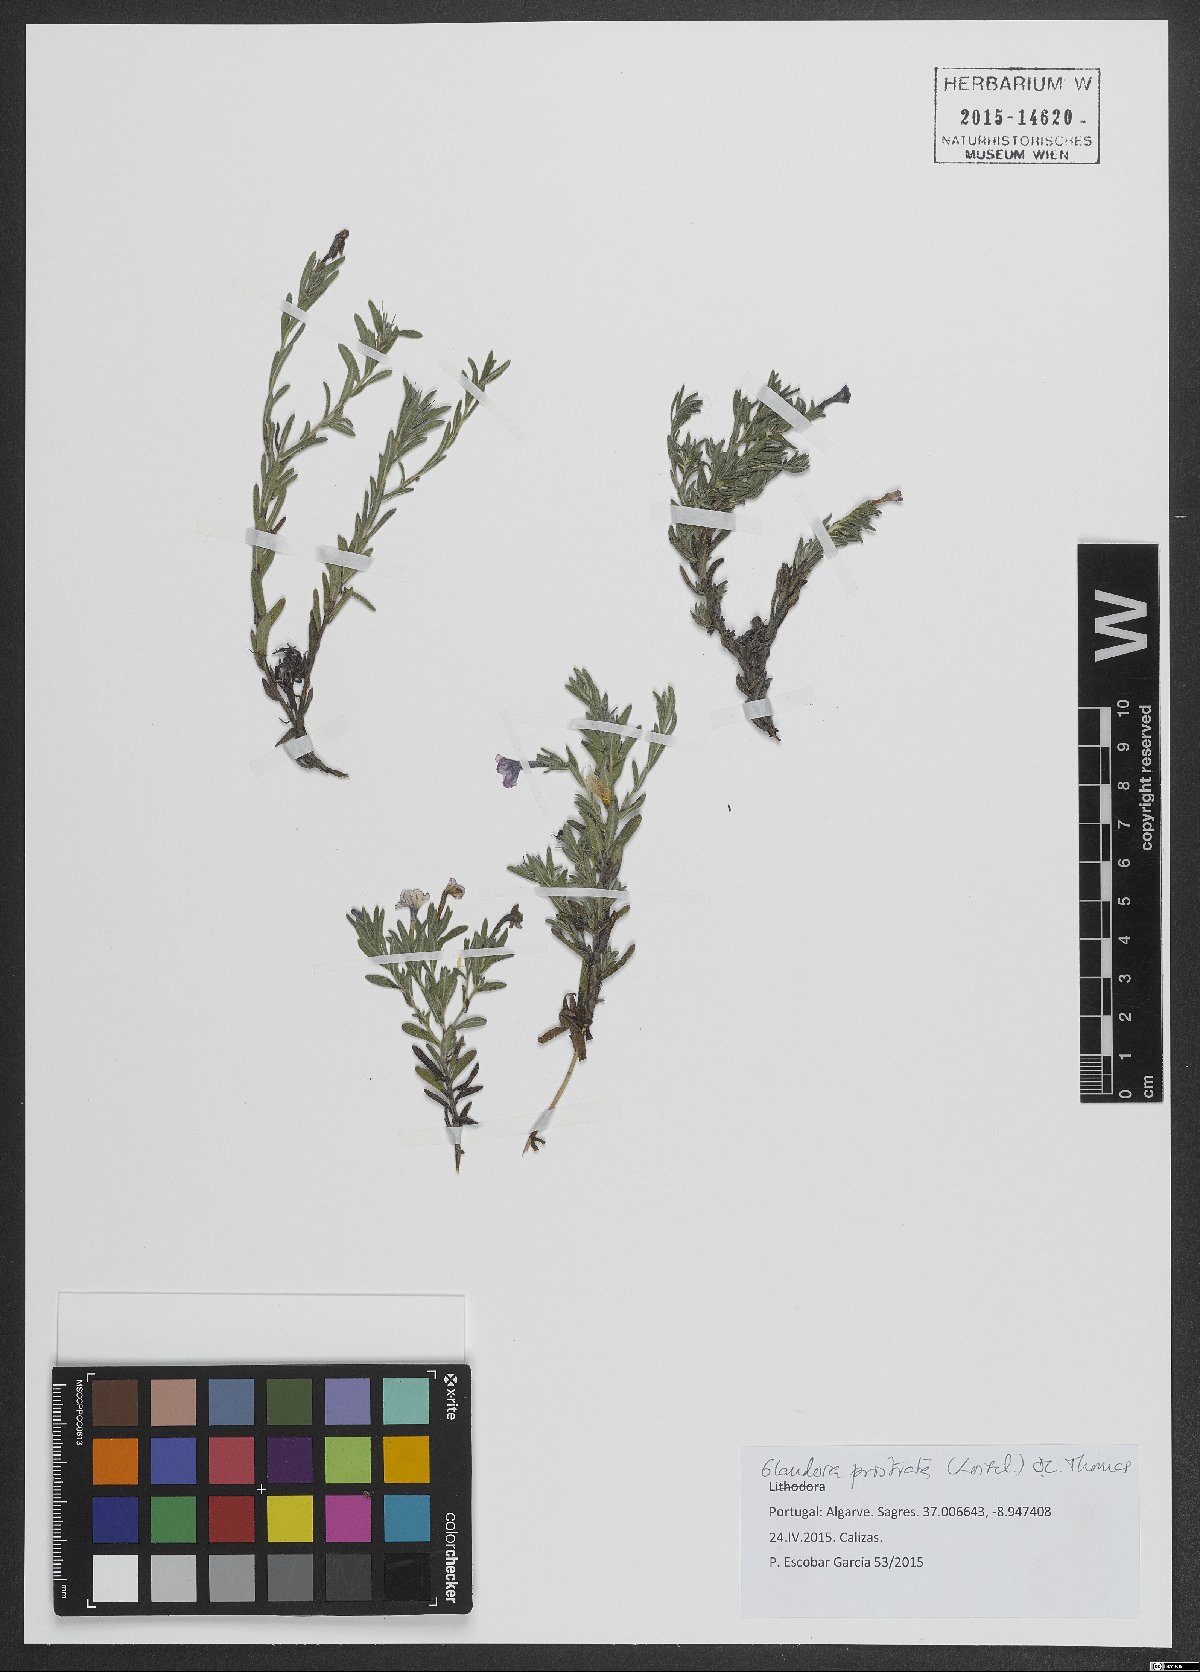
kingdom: Plantae
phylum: Tracheophyta
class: Magnoliopsida
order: Boraginales
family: Boraginaceae
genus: Glandora
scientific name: Glandora prostrata
